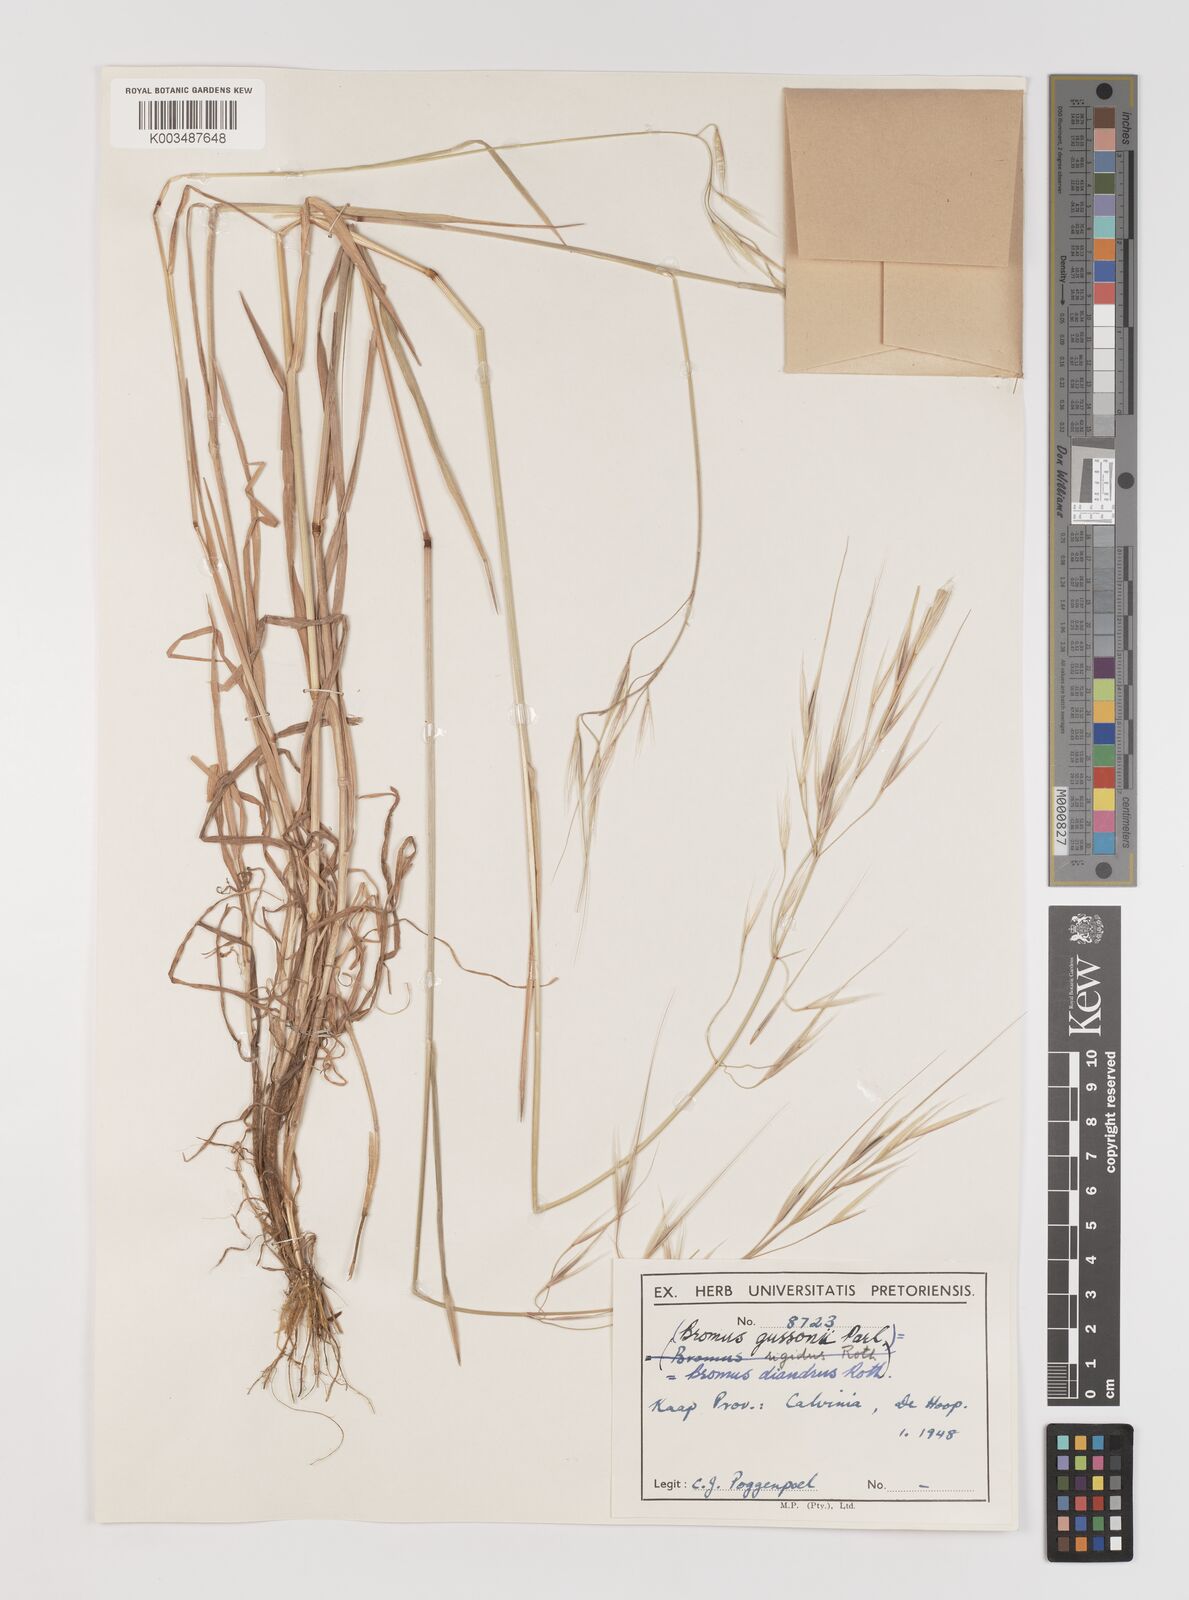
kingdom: Plantae
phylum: Tracheophyta
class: Liliopsida
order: Poales
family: Poaceae
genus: Bromus
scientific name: Bromus diandrus
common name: Ripgut brome
